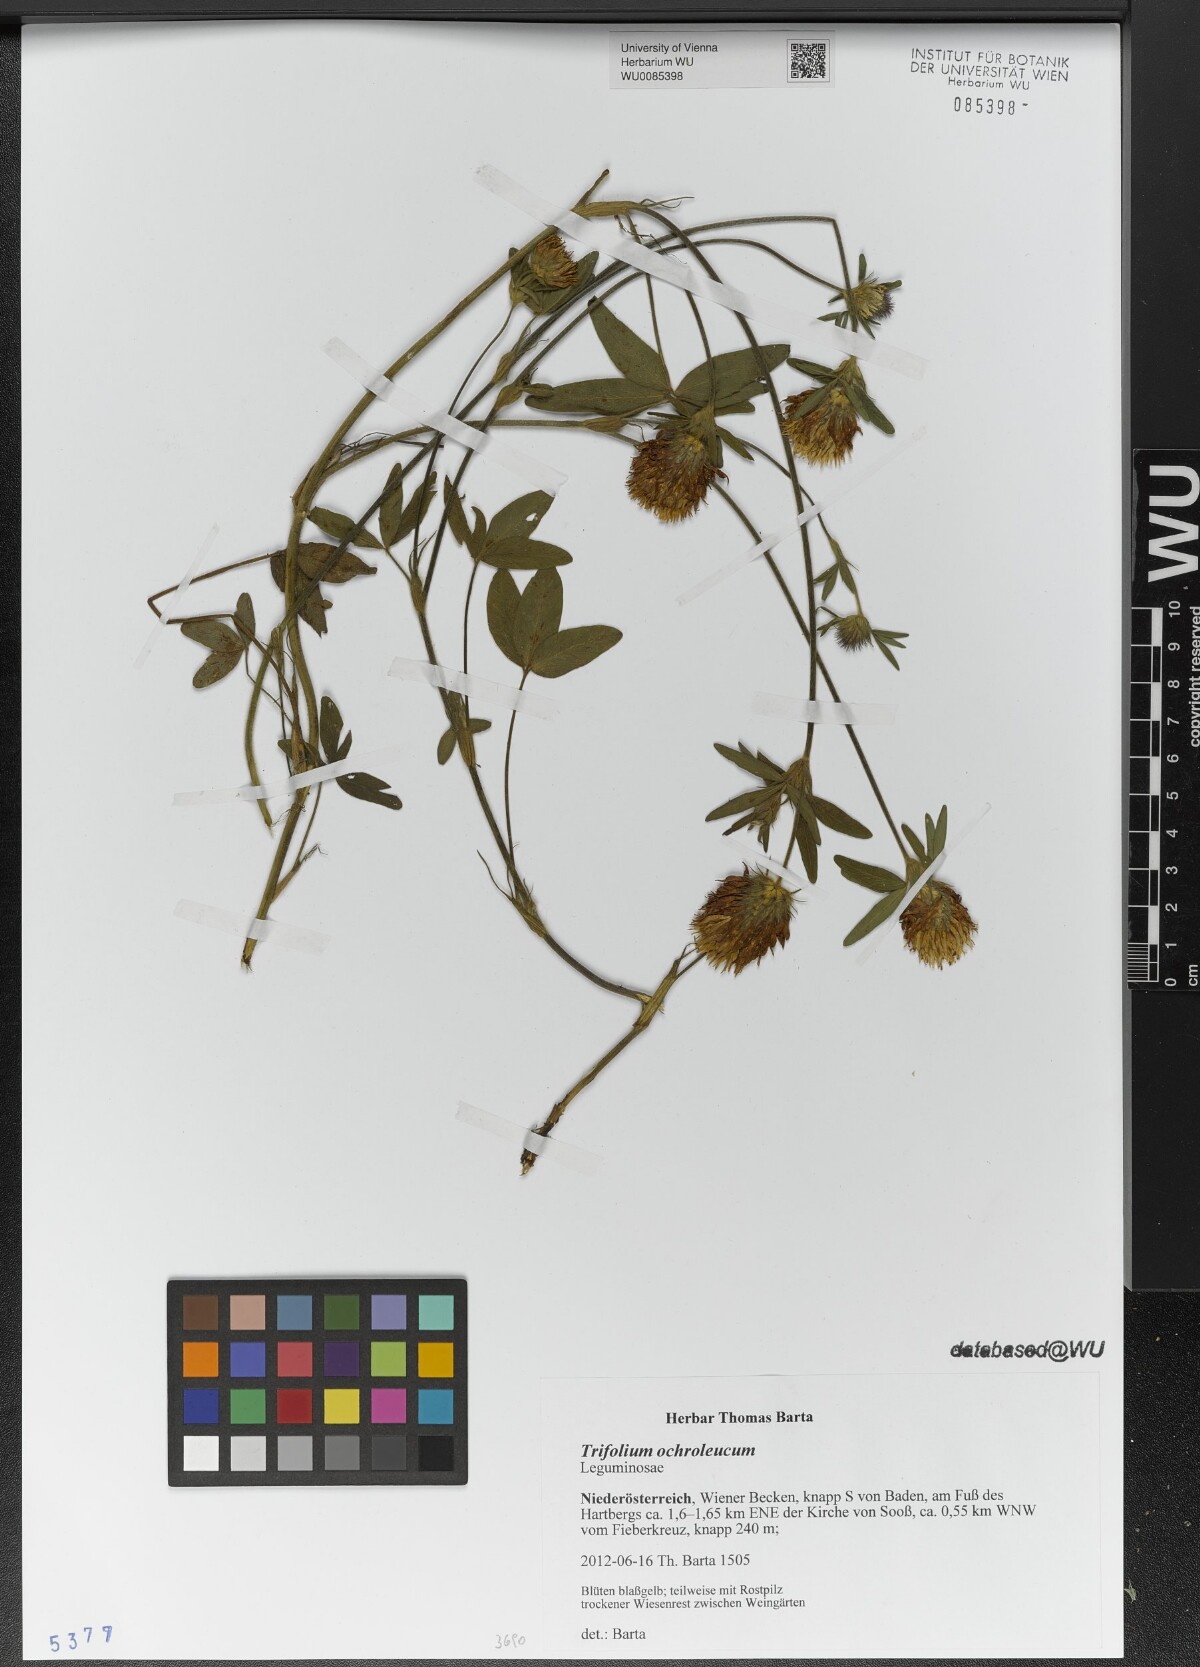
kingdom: Plantae
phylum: Tracheophyta
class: Magnoliopsida
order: Fabales
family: Fabaceae
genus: Trifolium
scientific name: Trifolium ochroleucon
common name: Sulphur clover
